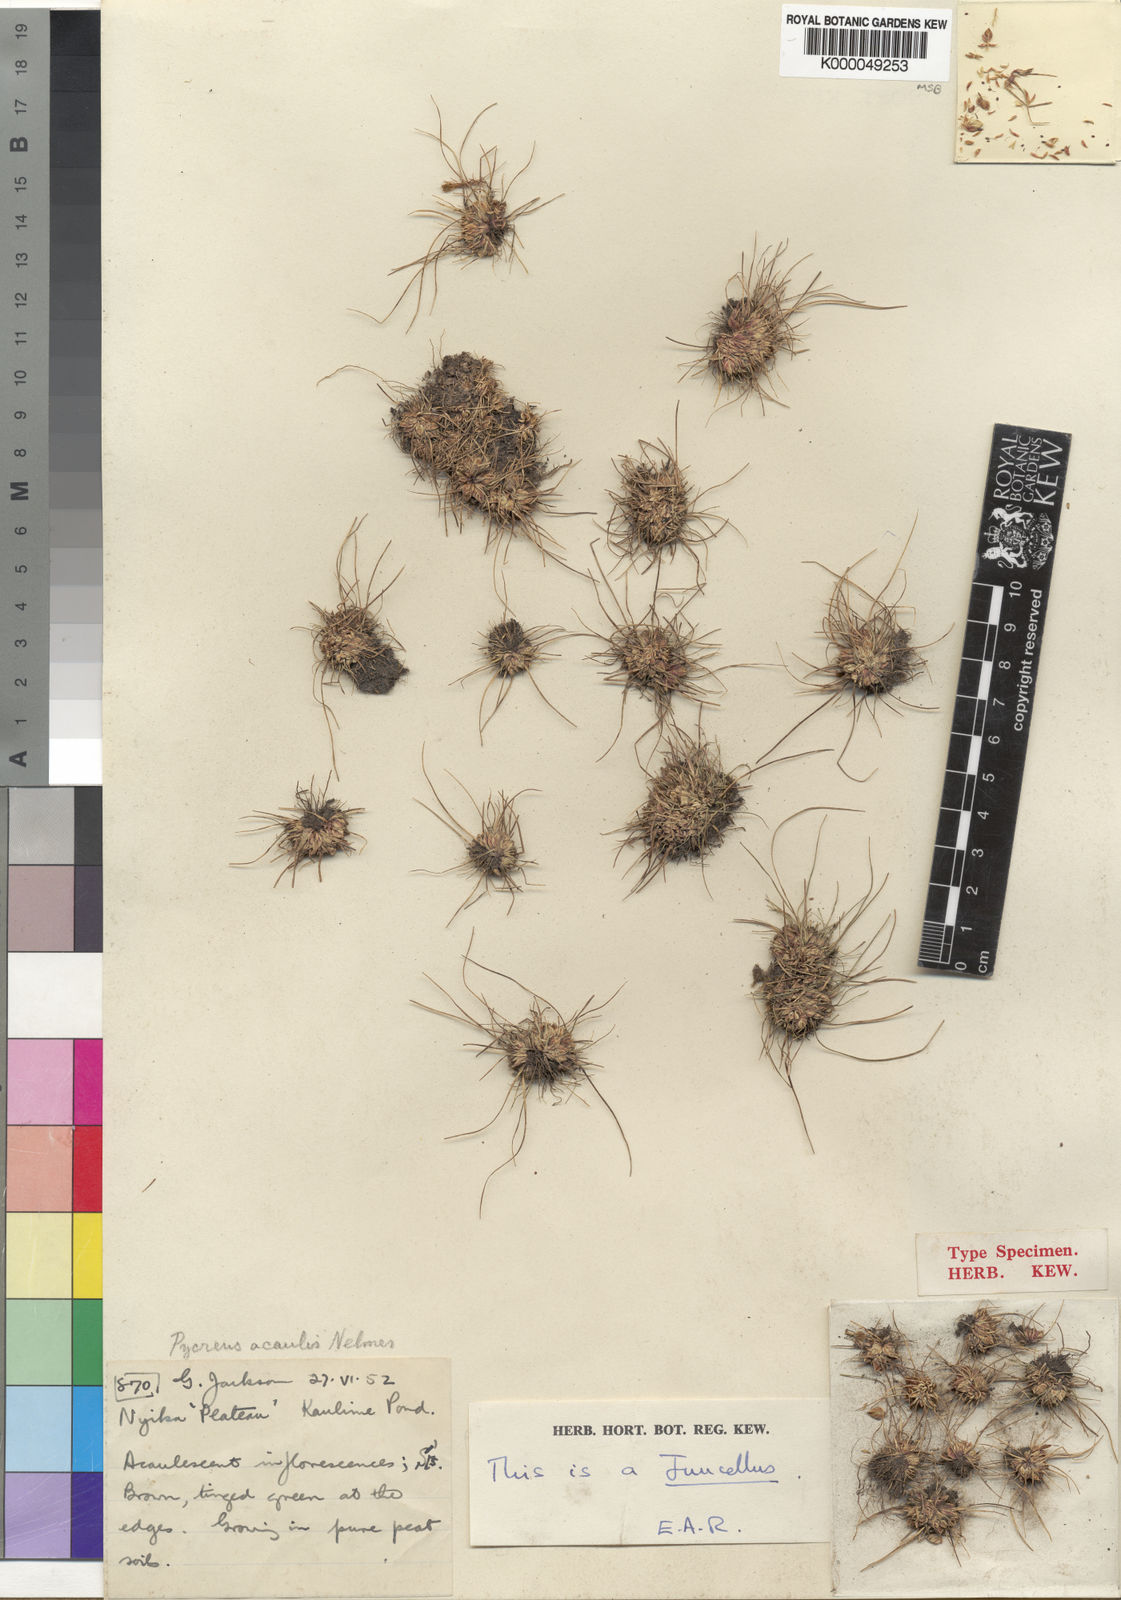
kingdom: Plantae
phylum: Tracheophyta
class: Liliopsida
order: Poales
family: Cyperaceae
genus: Cyperus
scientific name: Cyperus acaulescens
